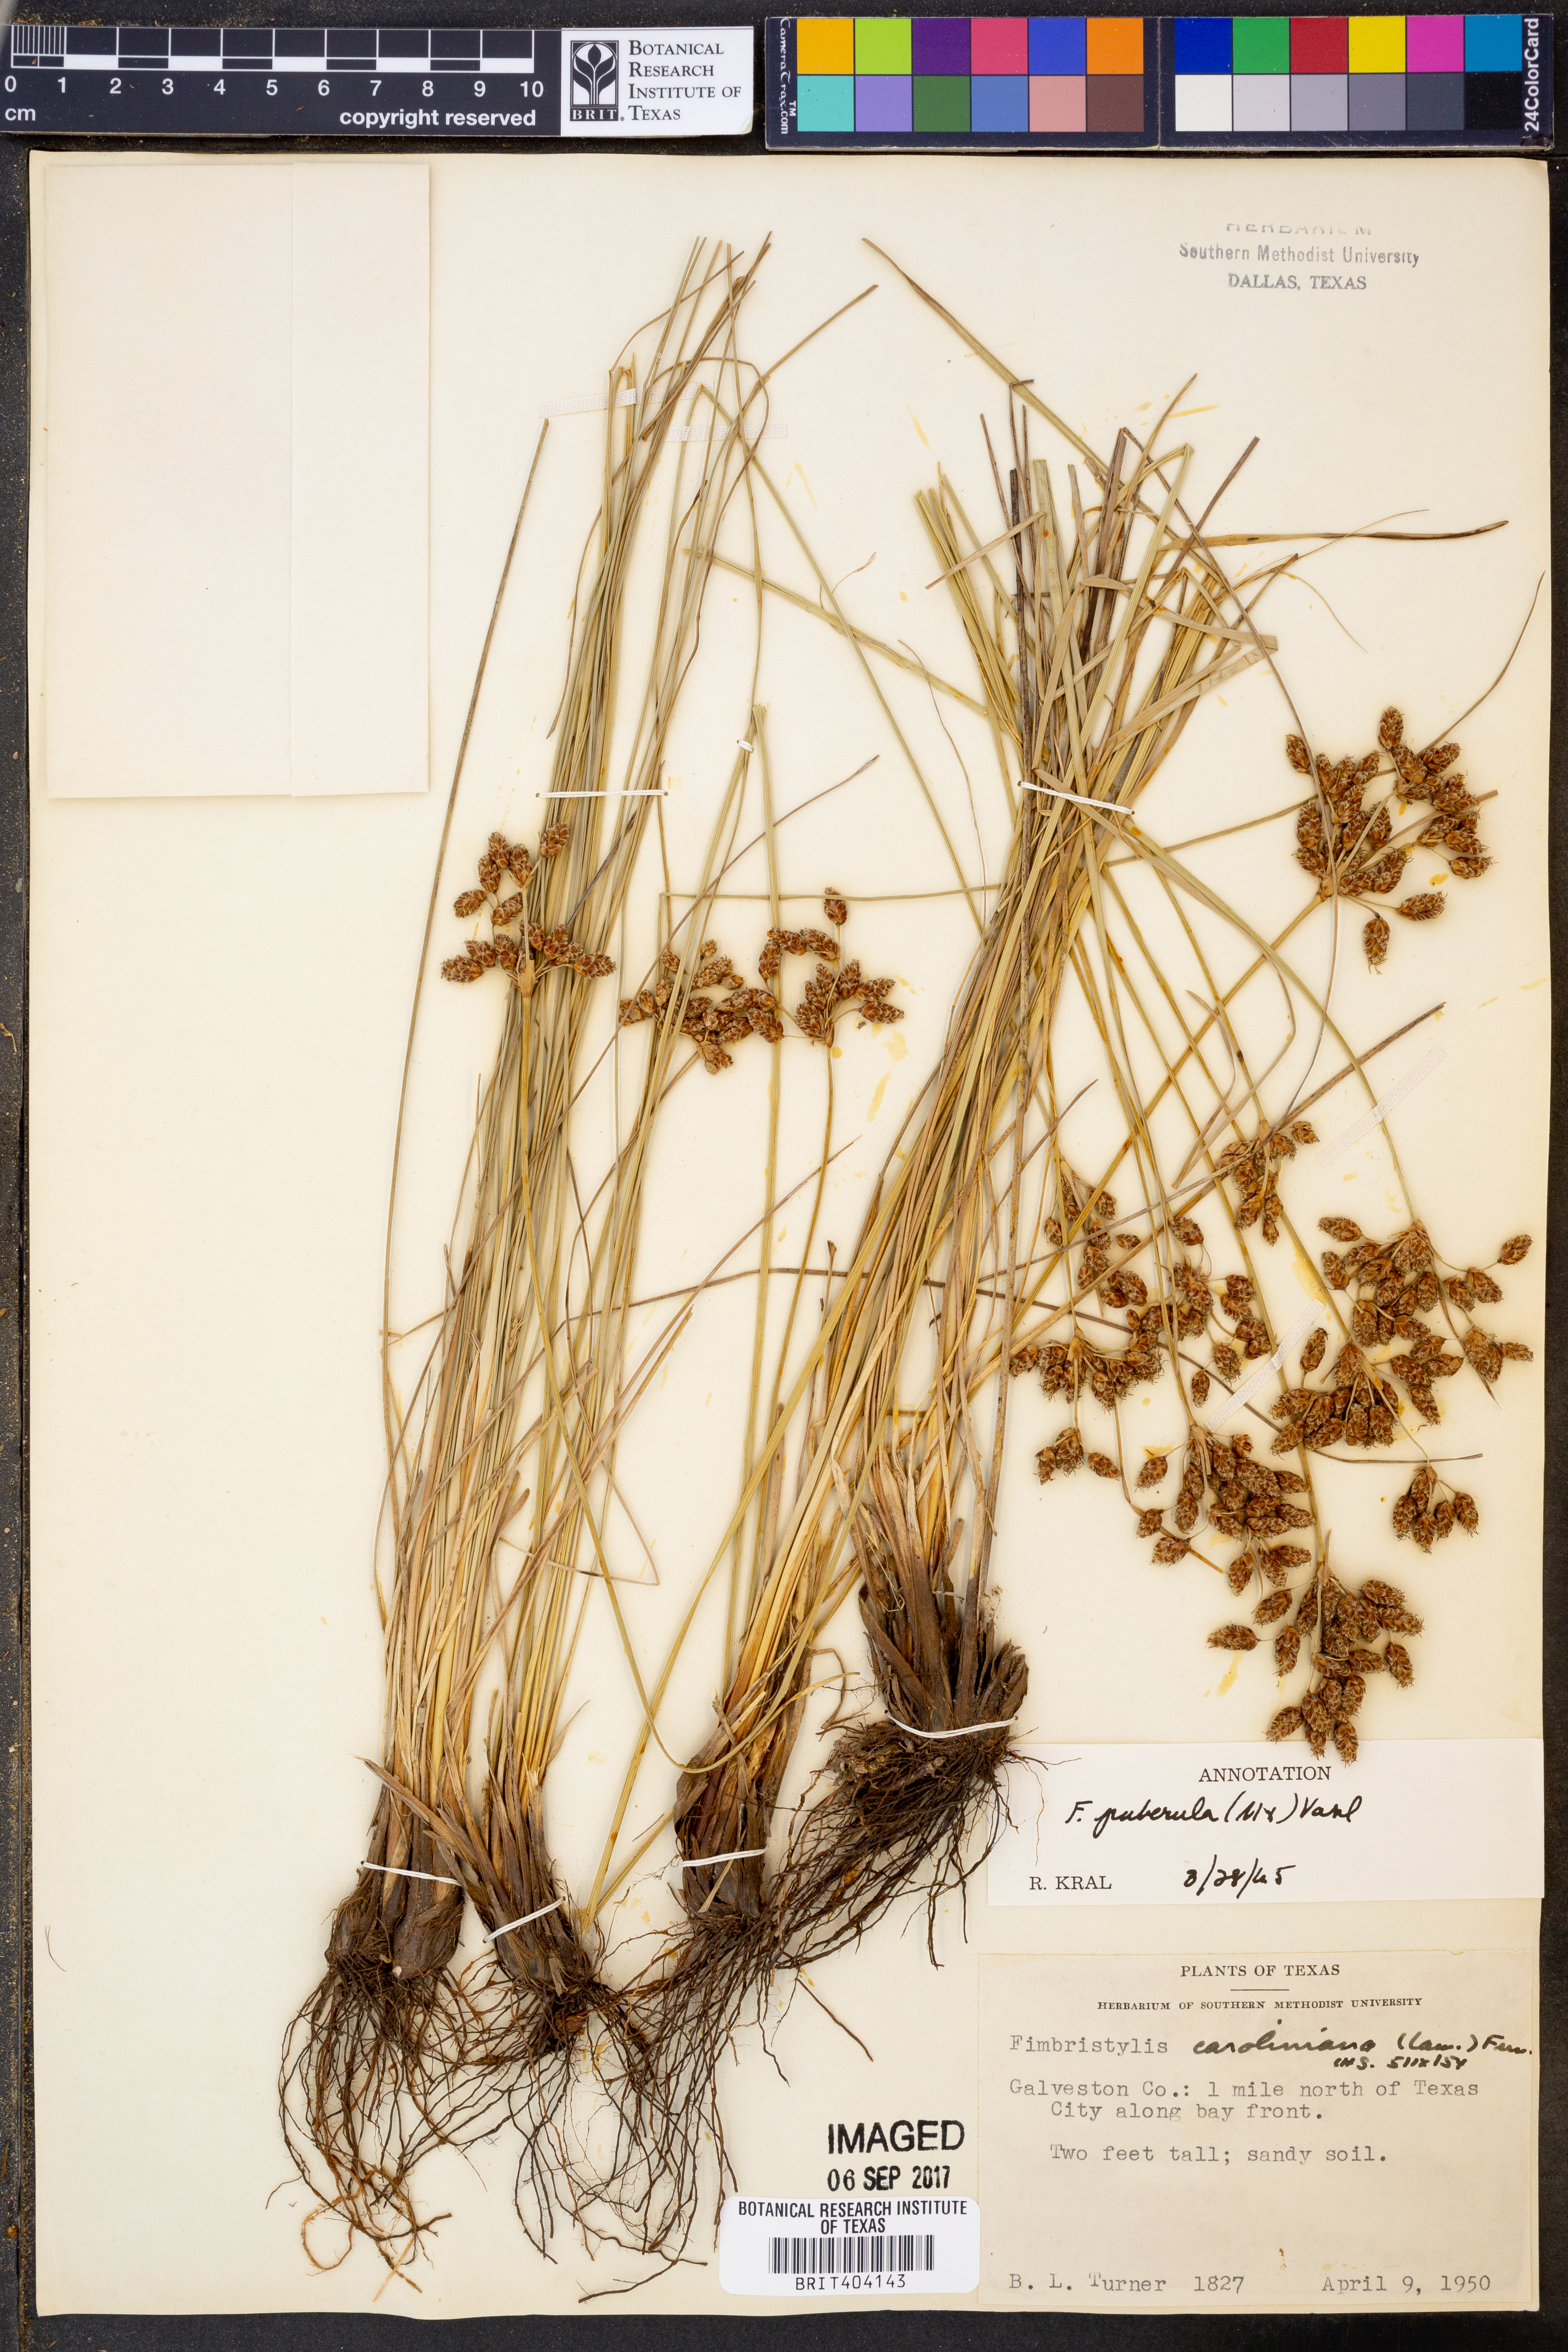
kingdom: Plantae
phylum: Tracheophyta
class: Liliopsida
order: Poales
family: Cyperaceae
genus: Fimbristylis
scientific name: Fimbristylis puberula
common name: Hairy fimbristylis
